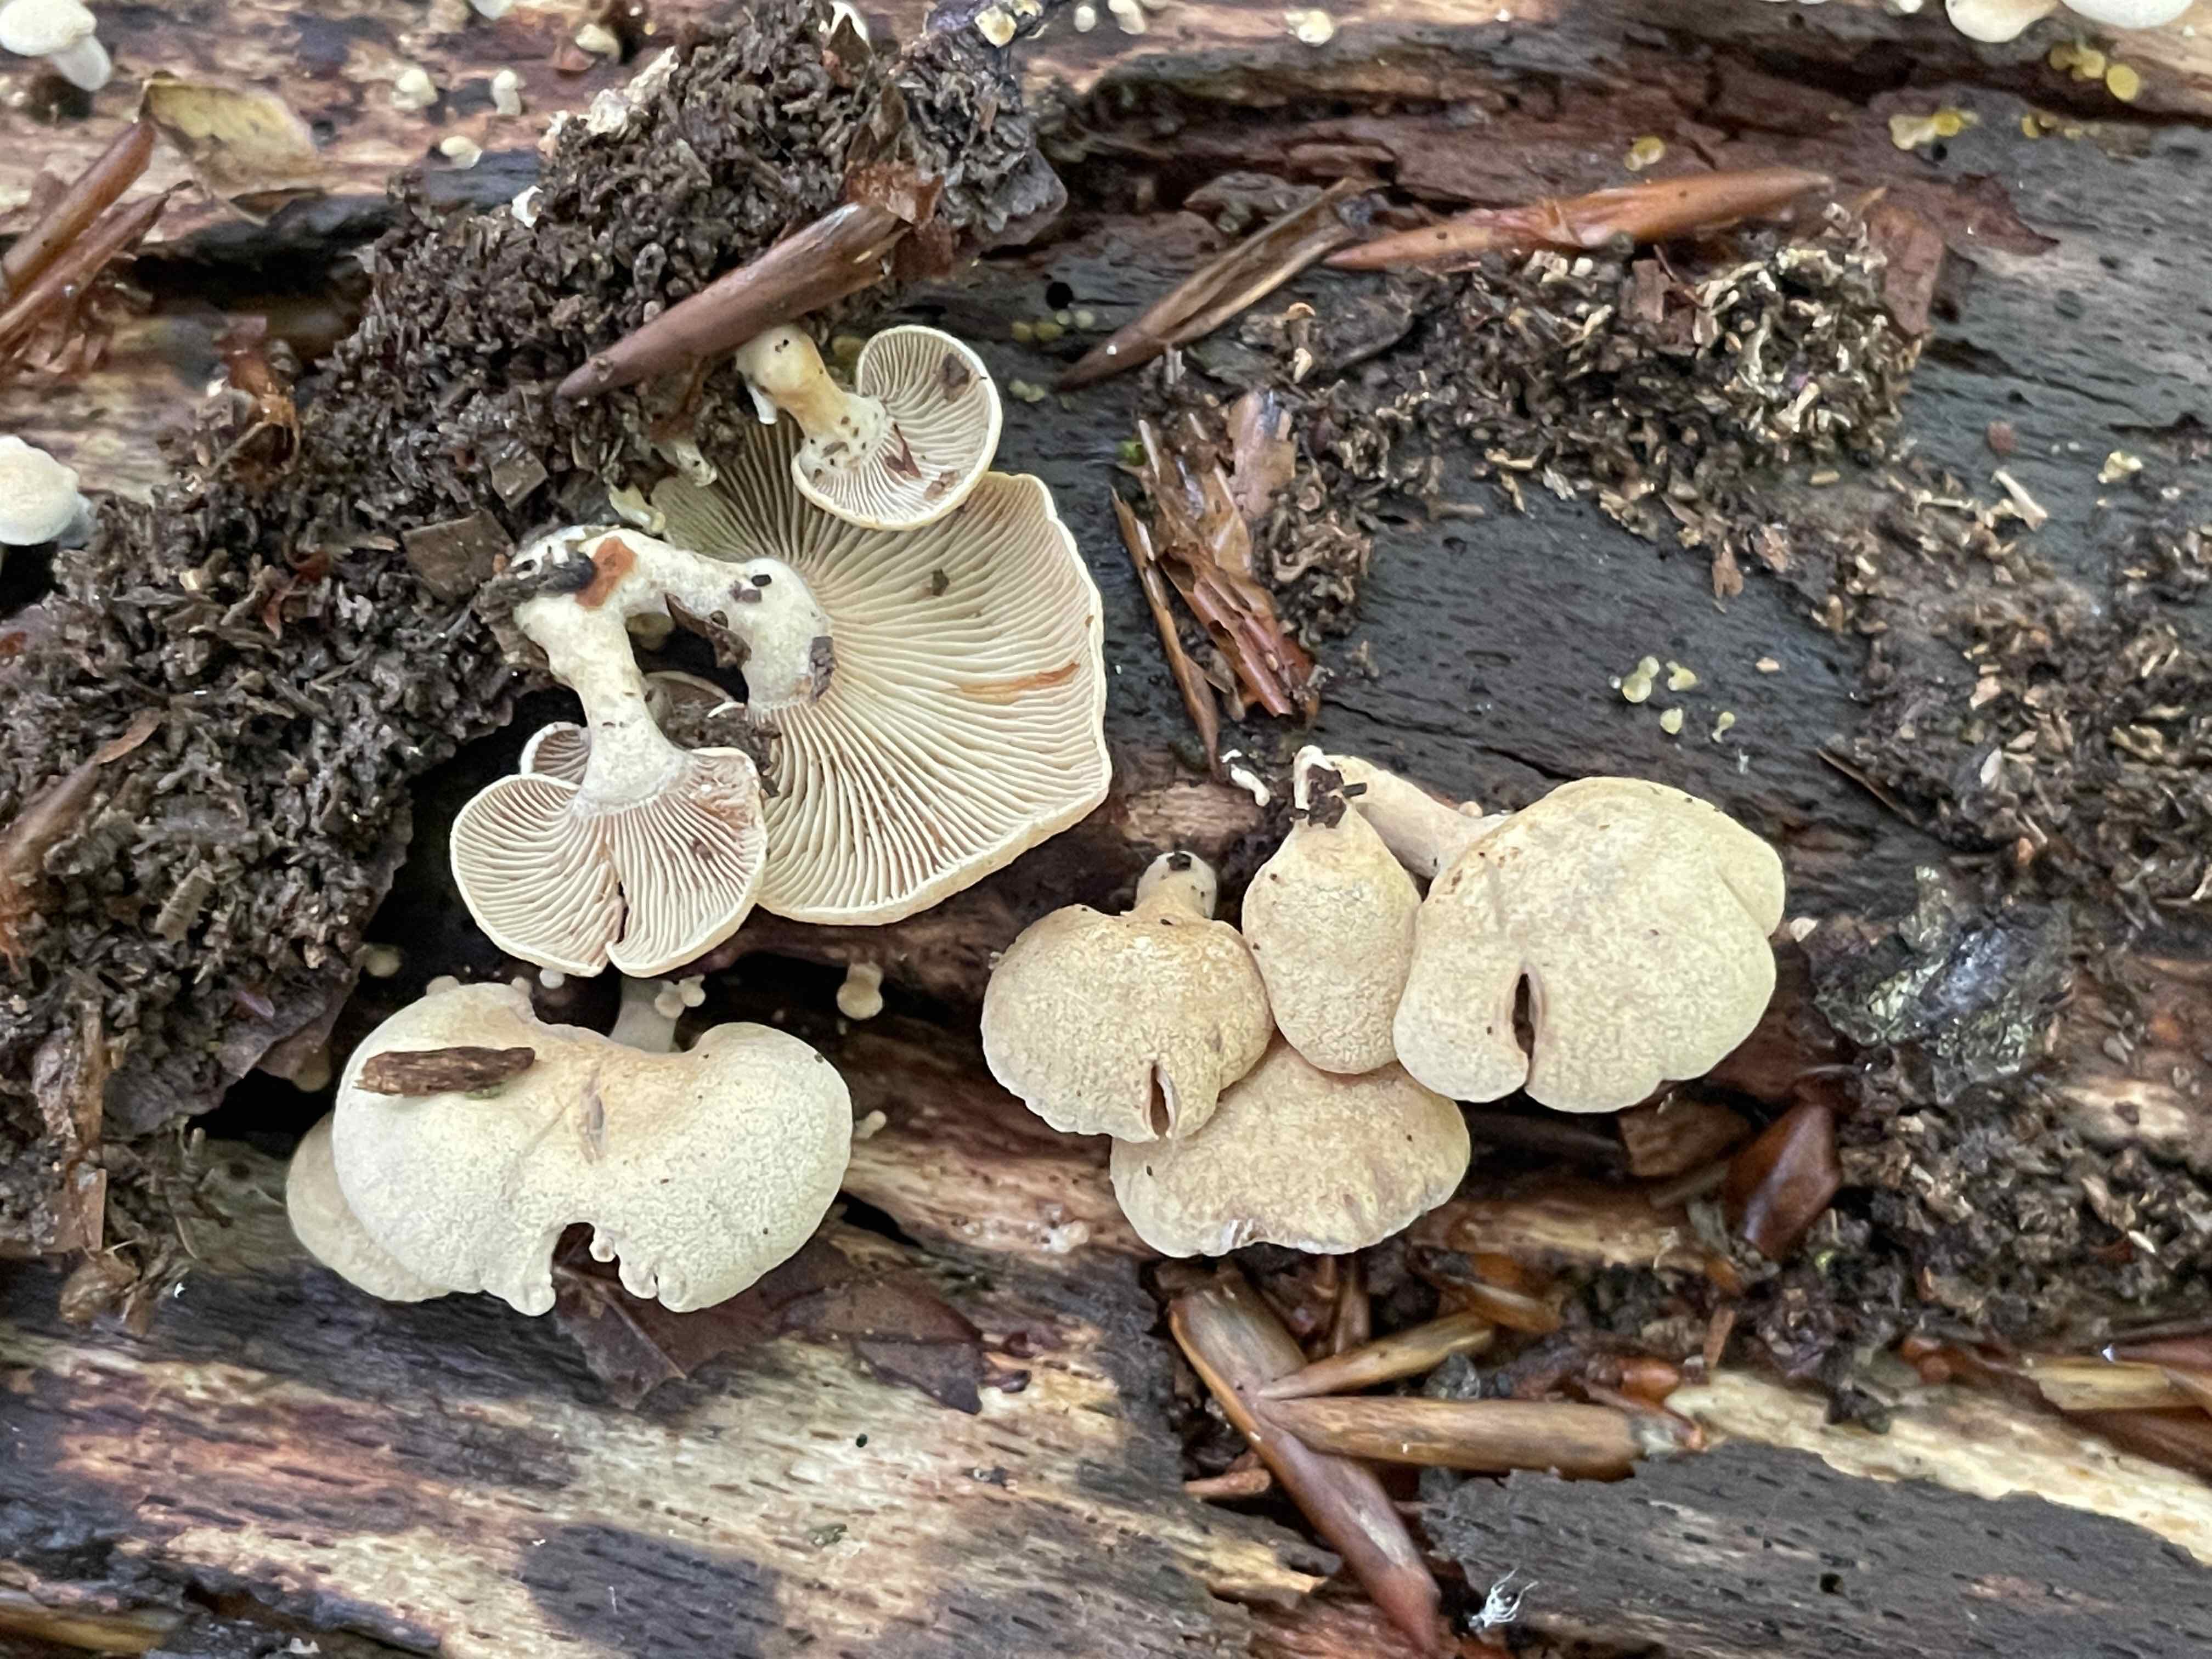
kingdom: Fungi
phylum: Basidiomycota
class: Agaricomycetes
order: Agaricales
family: Mycenaceae
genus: Panellus
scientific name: Panellus stipticus
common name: kliddet epaulethat
